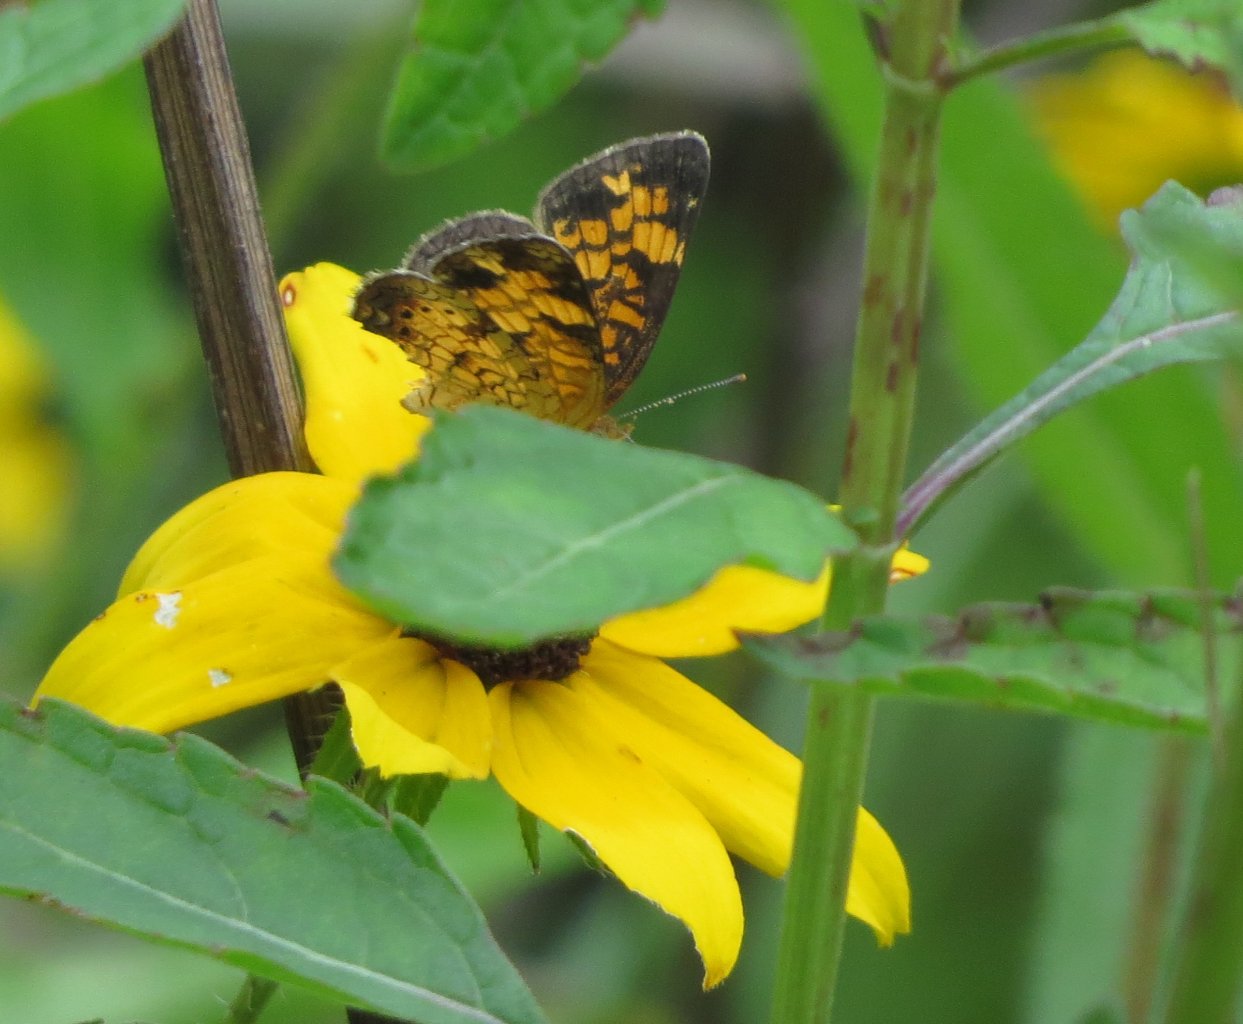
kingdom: Animalia
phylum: Arthropoda
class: Insecta
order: Lepidoptera
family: Nymphalidae
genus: Phyciodes
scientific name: Phyciodes tharos
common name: Pearl Crescent
